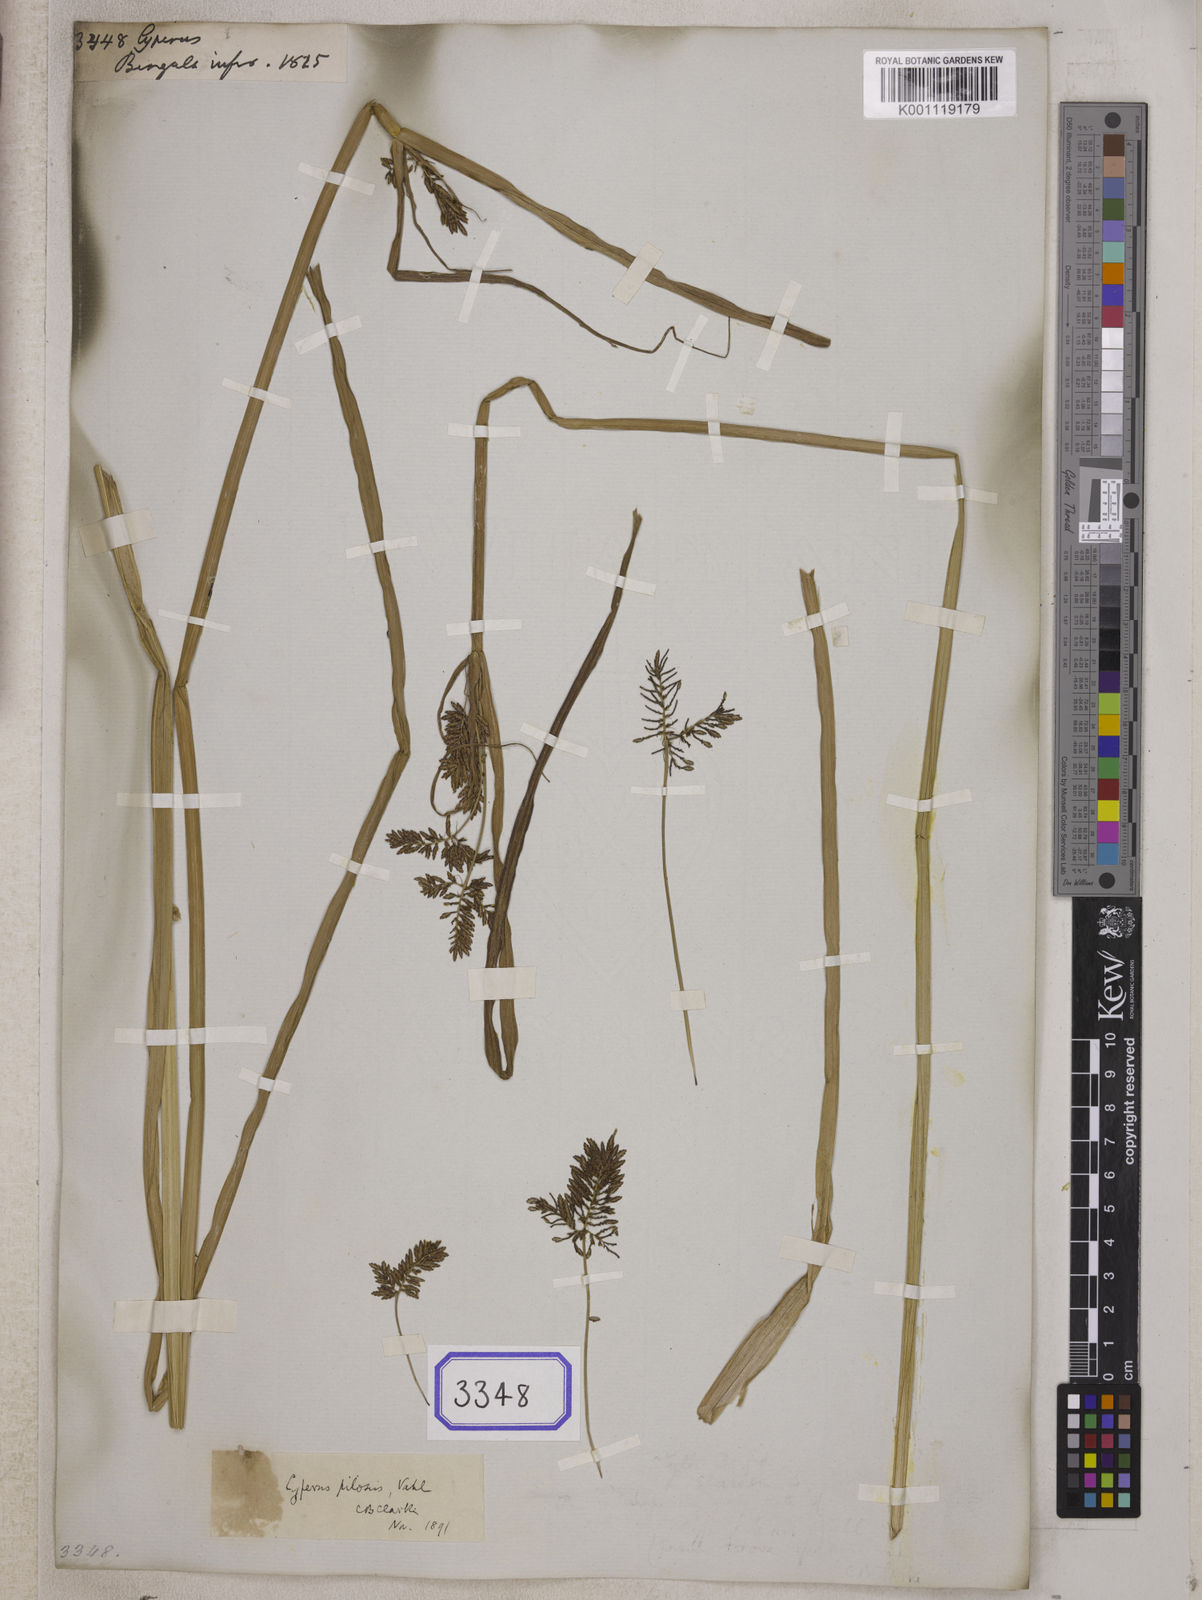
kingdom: Plantae
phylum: Tracheophyta
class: Liliopsida
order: Poales
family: Cyperaceae
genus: Cyperus
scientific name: Cyperus
